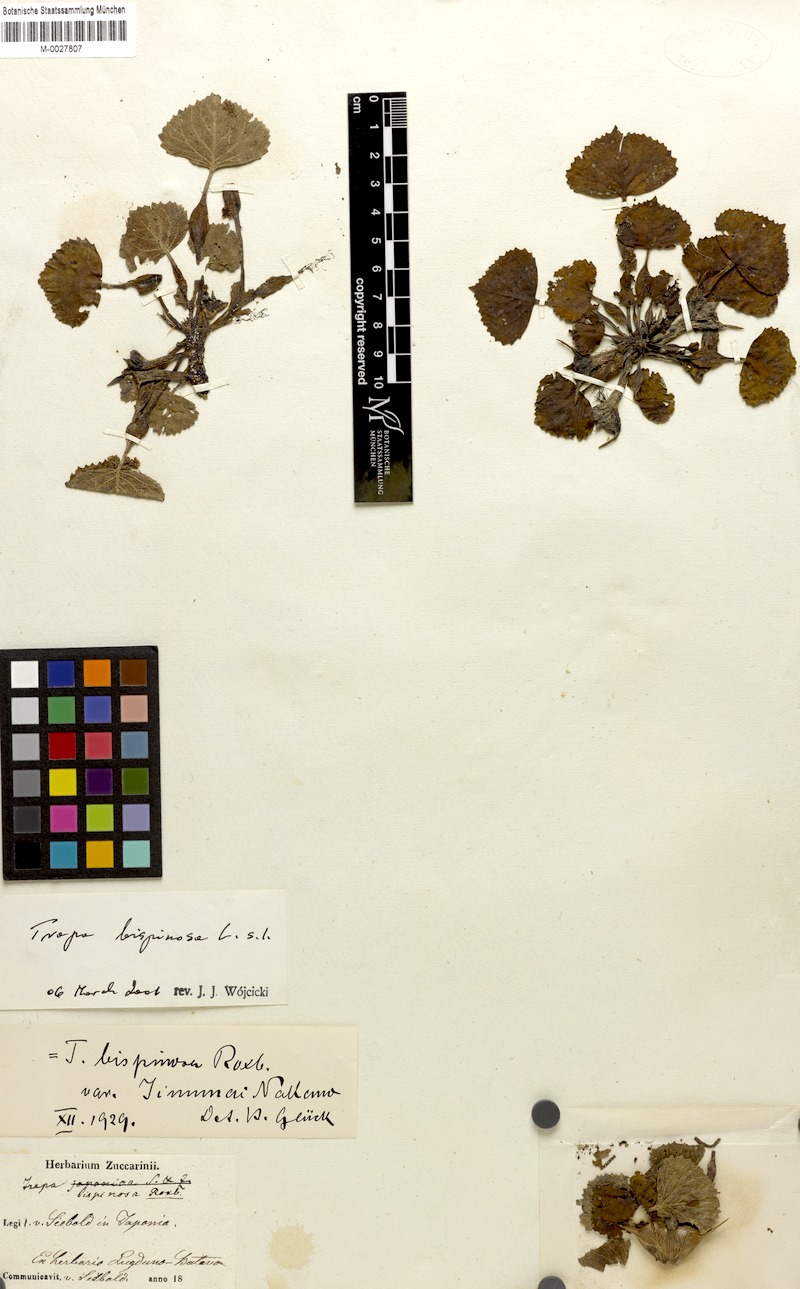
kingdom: Plantae
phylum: Tracheophyta
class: Magnoliopsida
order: Myrtales
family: Lythraceae
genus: Trapa
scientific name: Trapa natans
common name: Water chestnut
